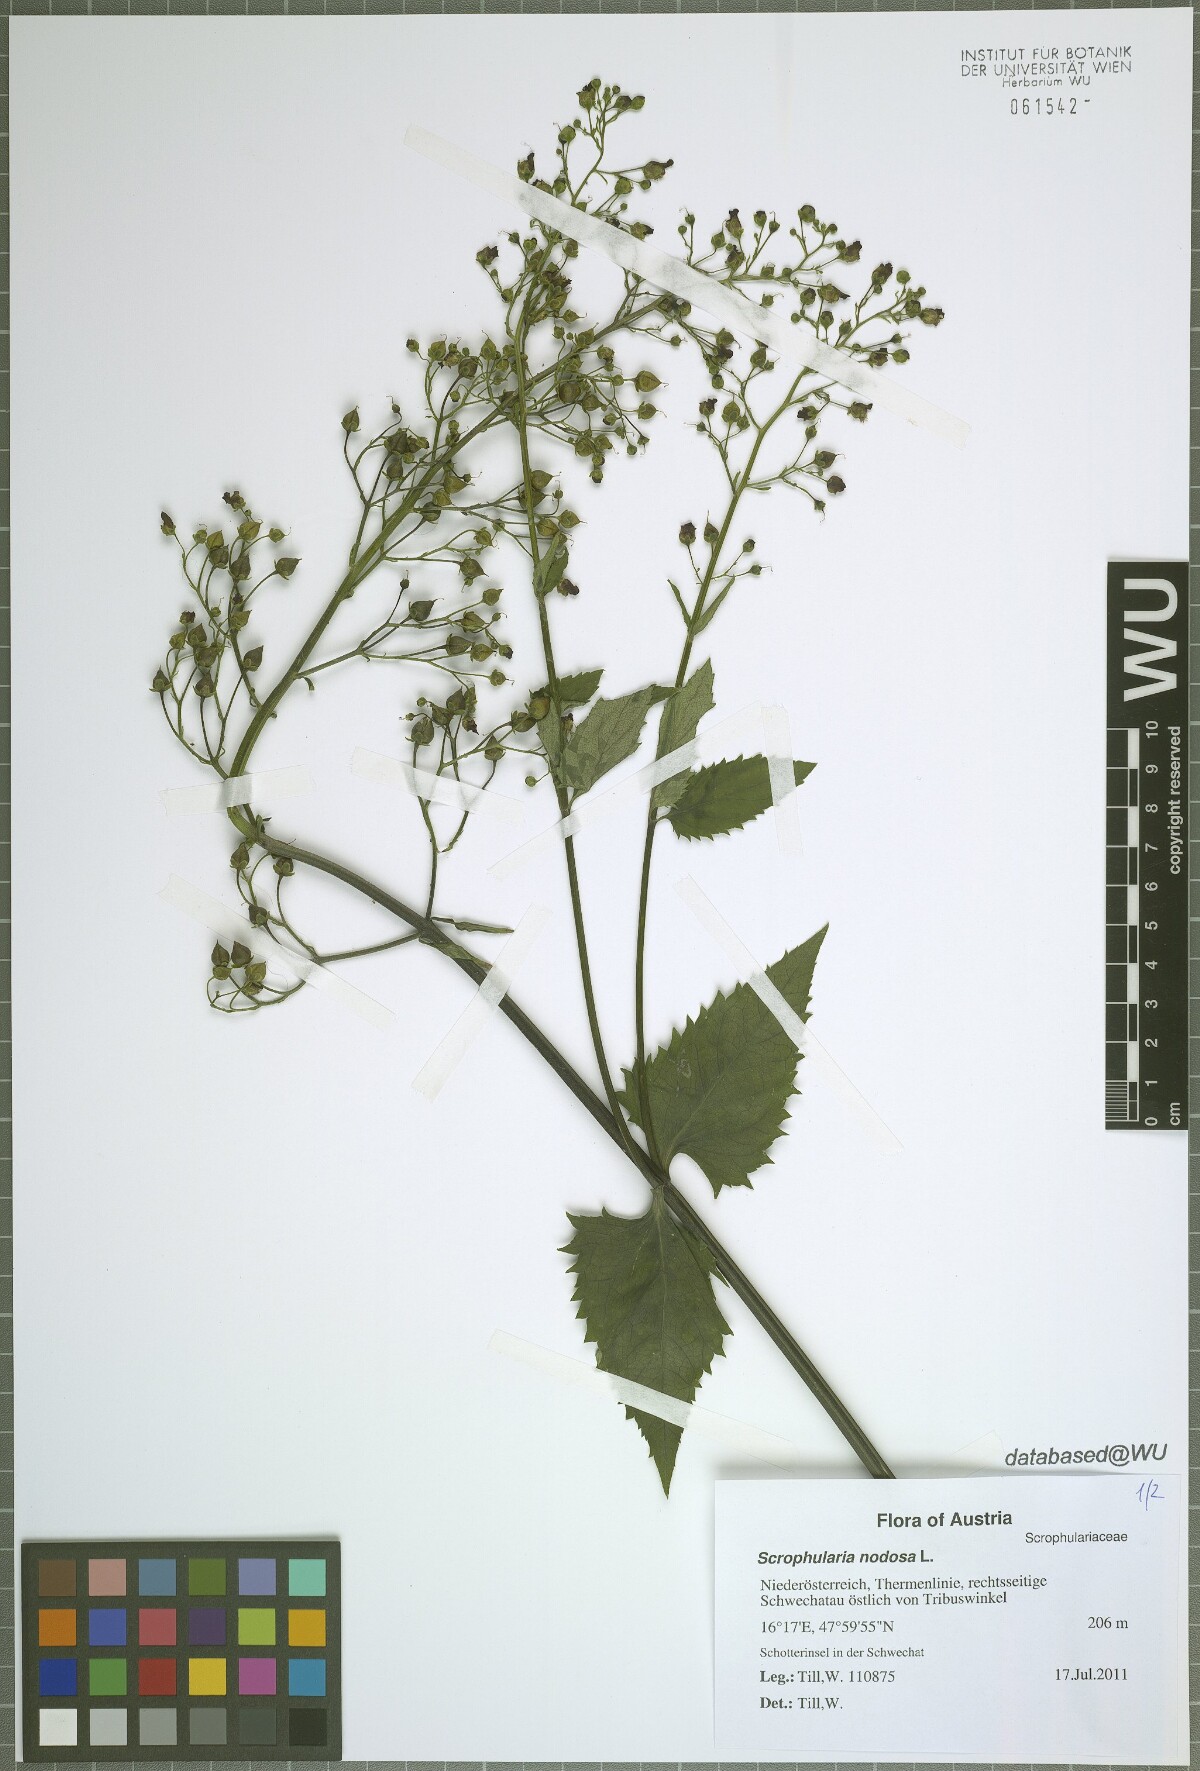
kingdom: Plantae
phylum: Tracheophyta
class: Magnoliopsida
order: Lamiales
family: Scrophulariaceae
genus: Scrophularia
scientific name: Scrophularia nodosa
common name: Common figwort
